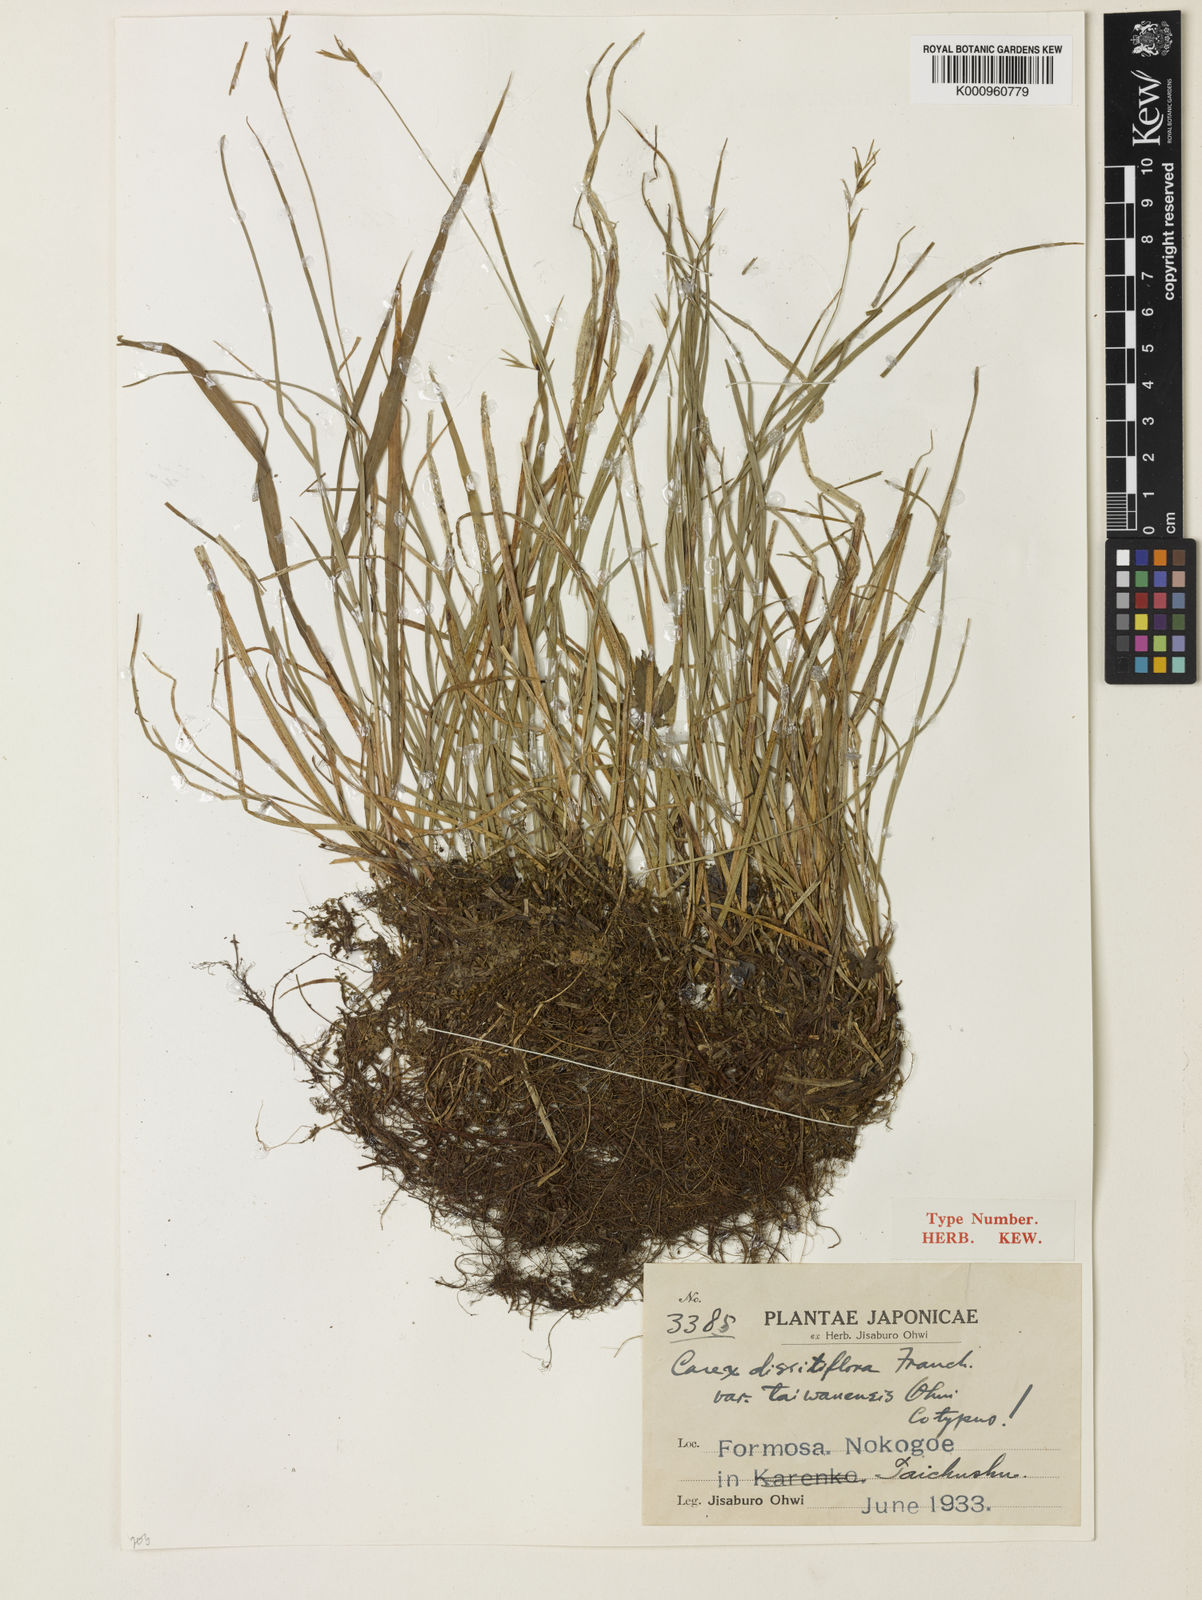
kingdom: Plantae
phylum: Tracheophyta
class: Liliopsida
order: Poales
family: Cyperaceae
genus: Carex
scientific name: Carex dissitiflora
